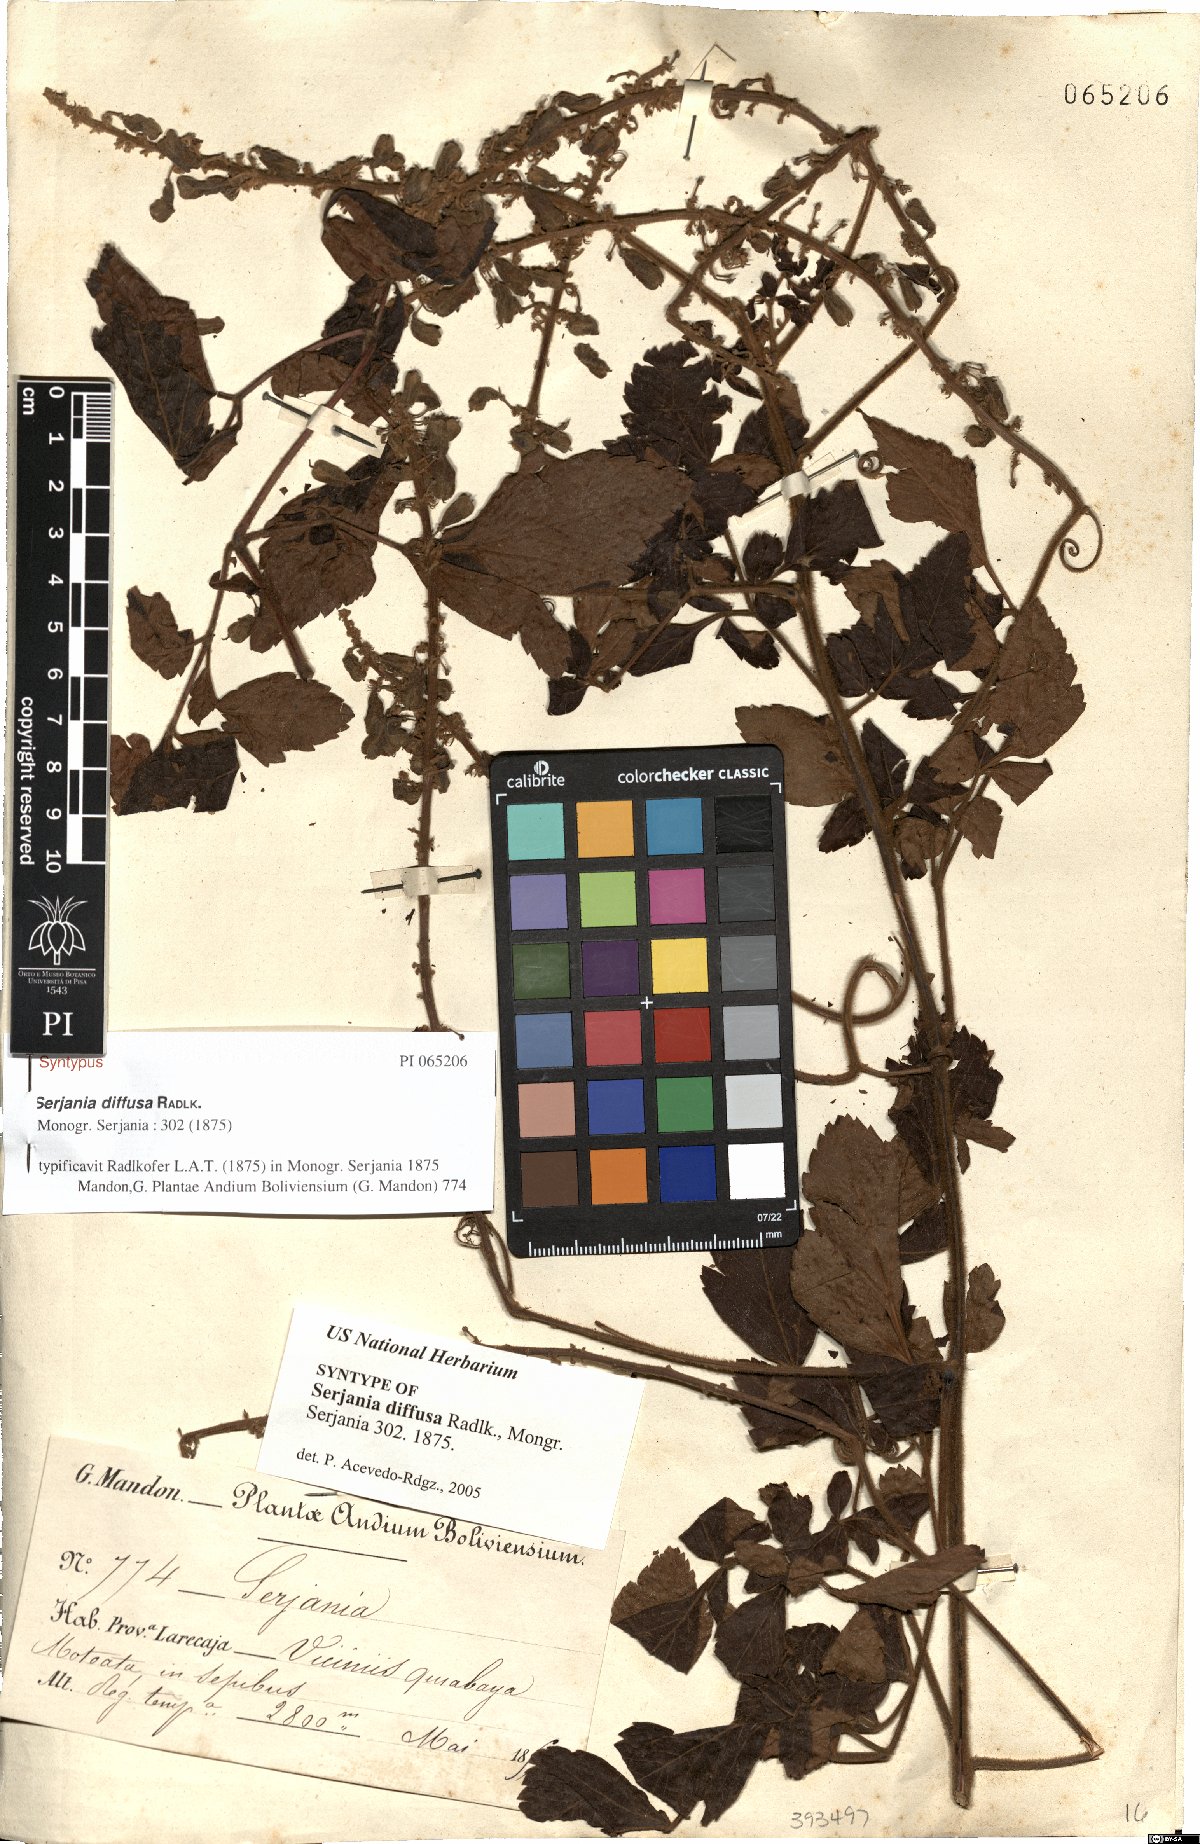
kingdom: Plantae
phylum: Tracheophyta
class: Magnoliopsida
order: Sapindales
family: Sapindaceae
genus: Serjania
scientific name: Serjania diffusa
